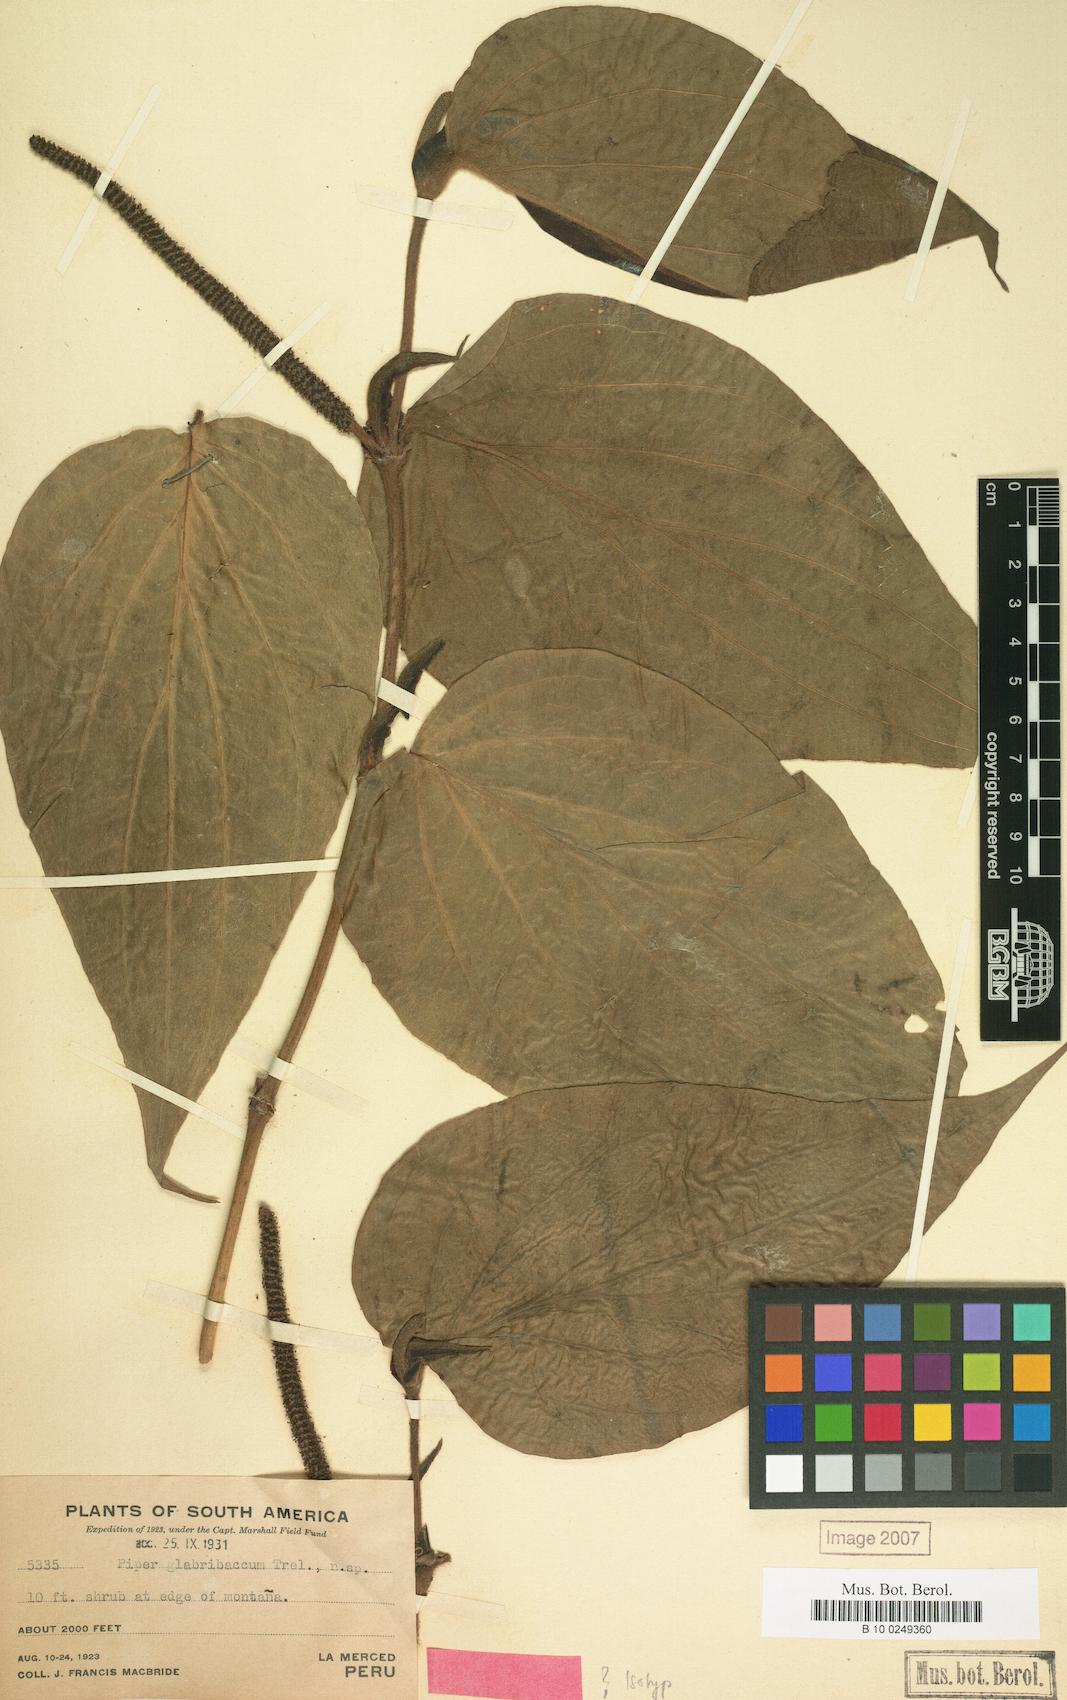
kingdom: Plantae
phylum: Tracheophyta
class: Magnoliopsida
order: Piperales
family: Piperaceae
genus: Piper
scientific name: Piper glabribaccum
